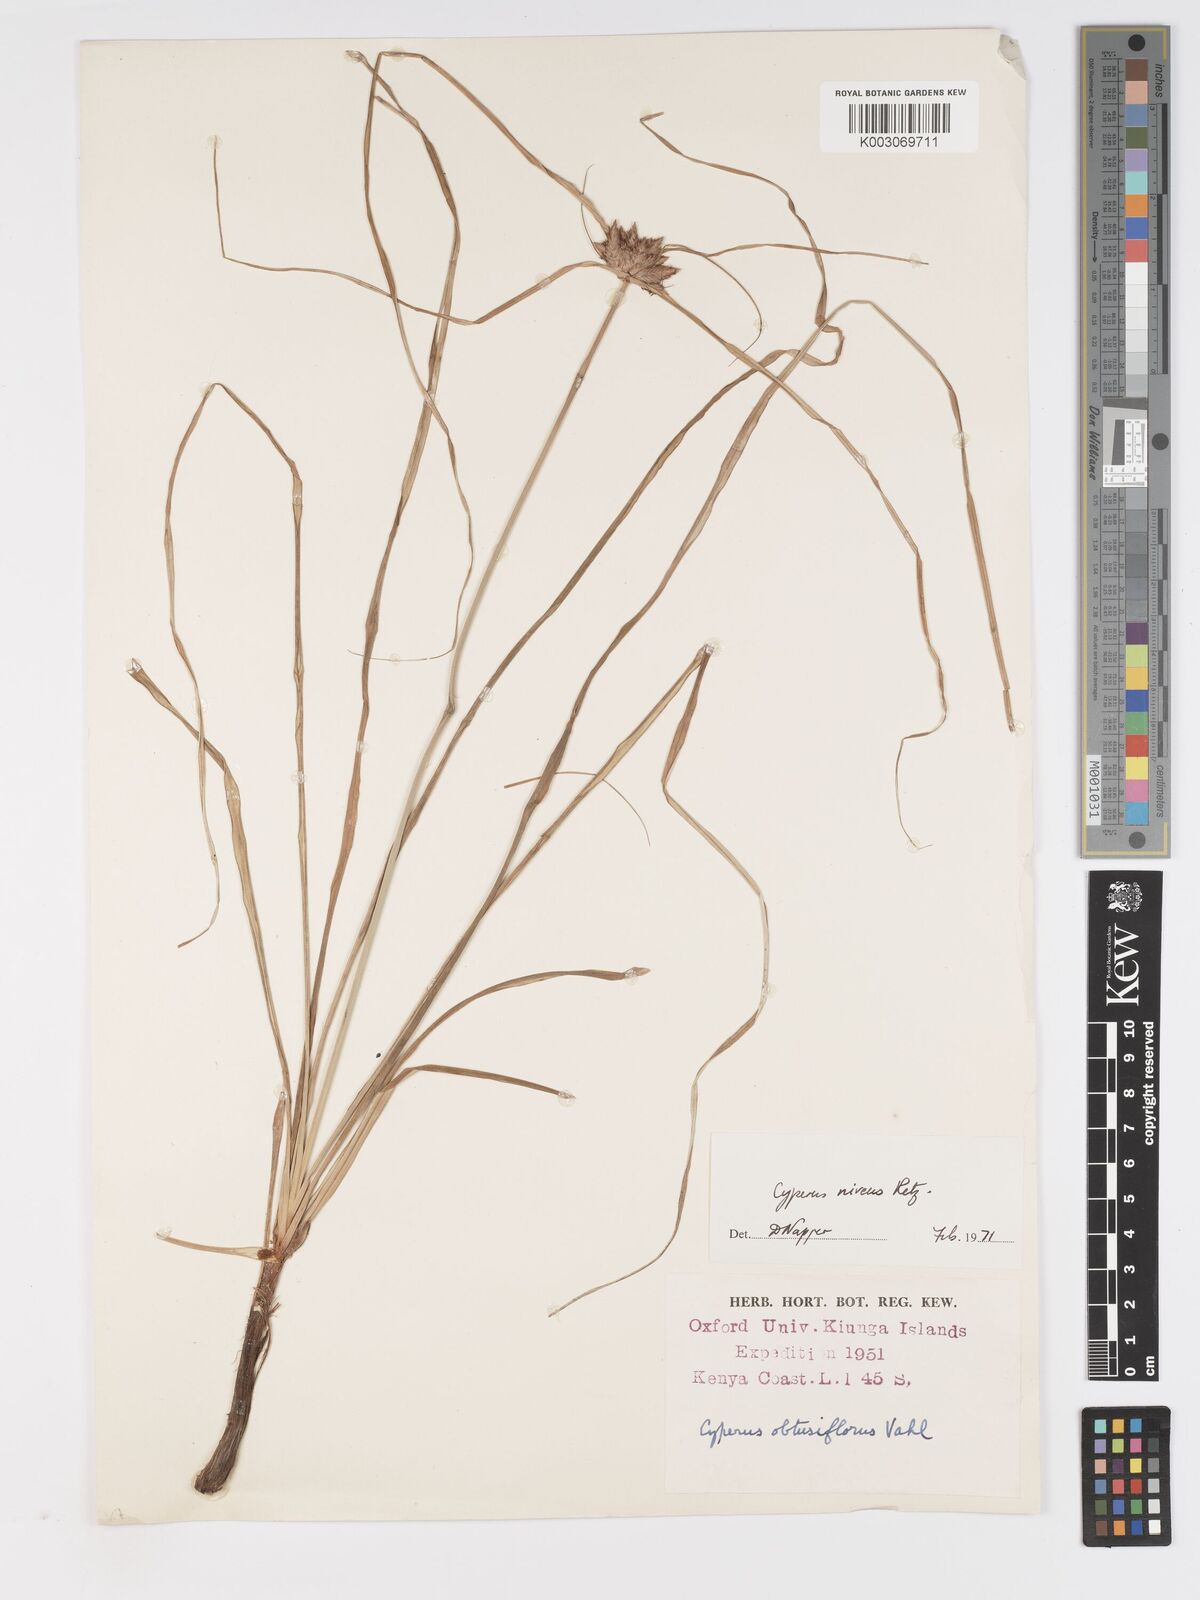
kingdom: Plantae
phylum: Tracheophyta
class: Liliopsida
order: Poales
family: Cyperaceae
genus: Cyperus
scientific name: Cyperus niveus
